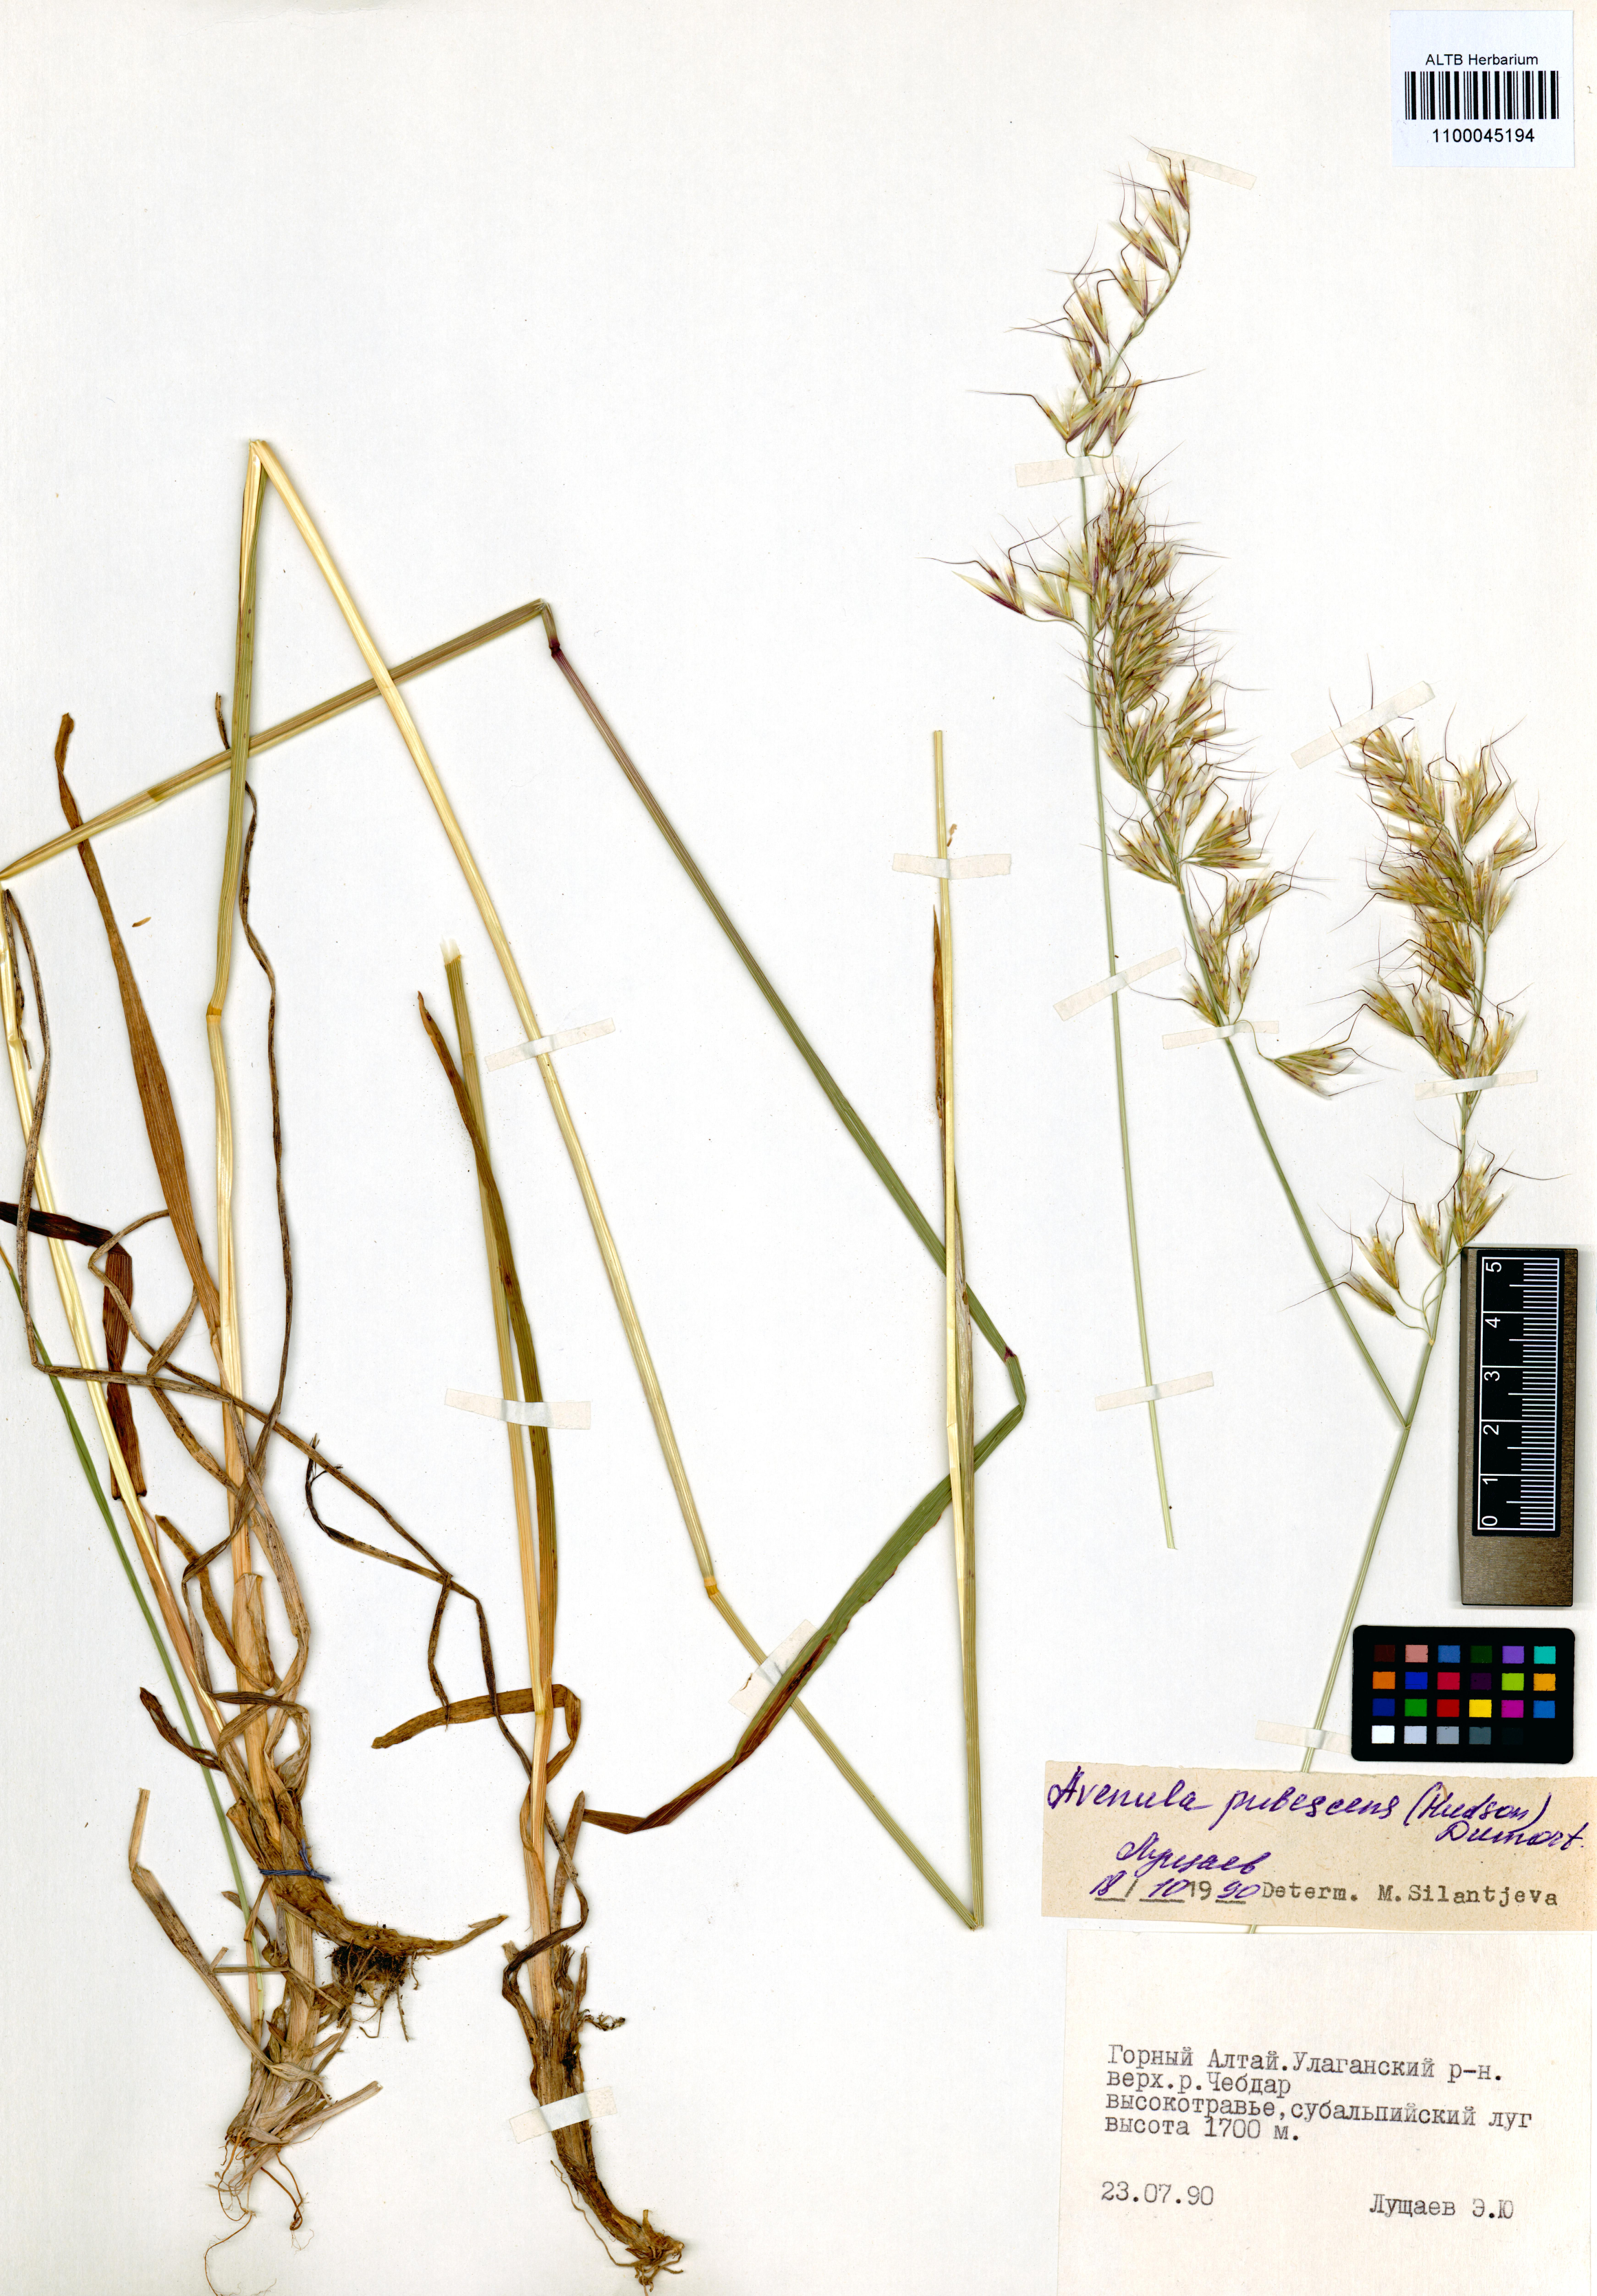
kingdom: Plantae
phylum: Tracheophyta
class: Liliopsida
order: Poales
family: Poaceae
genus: Avenula
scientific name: Avenula pubescens
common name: Downy alpine oatgrass
